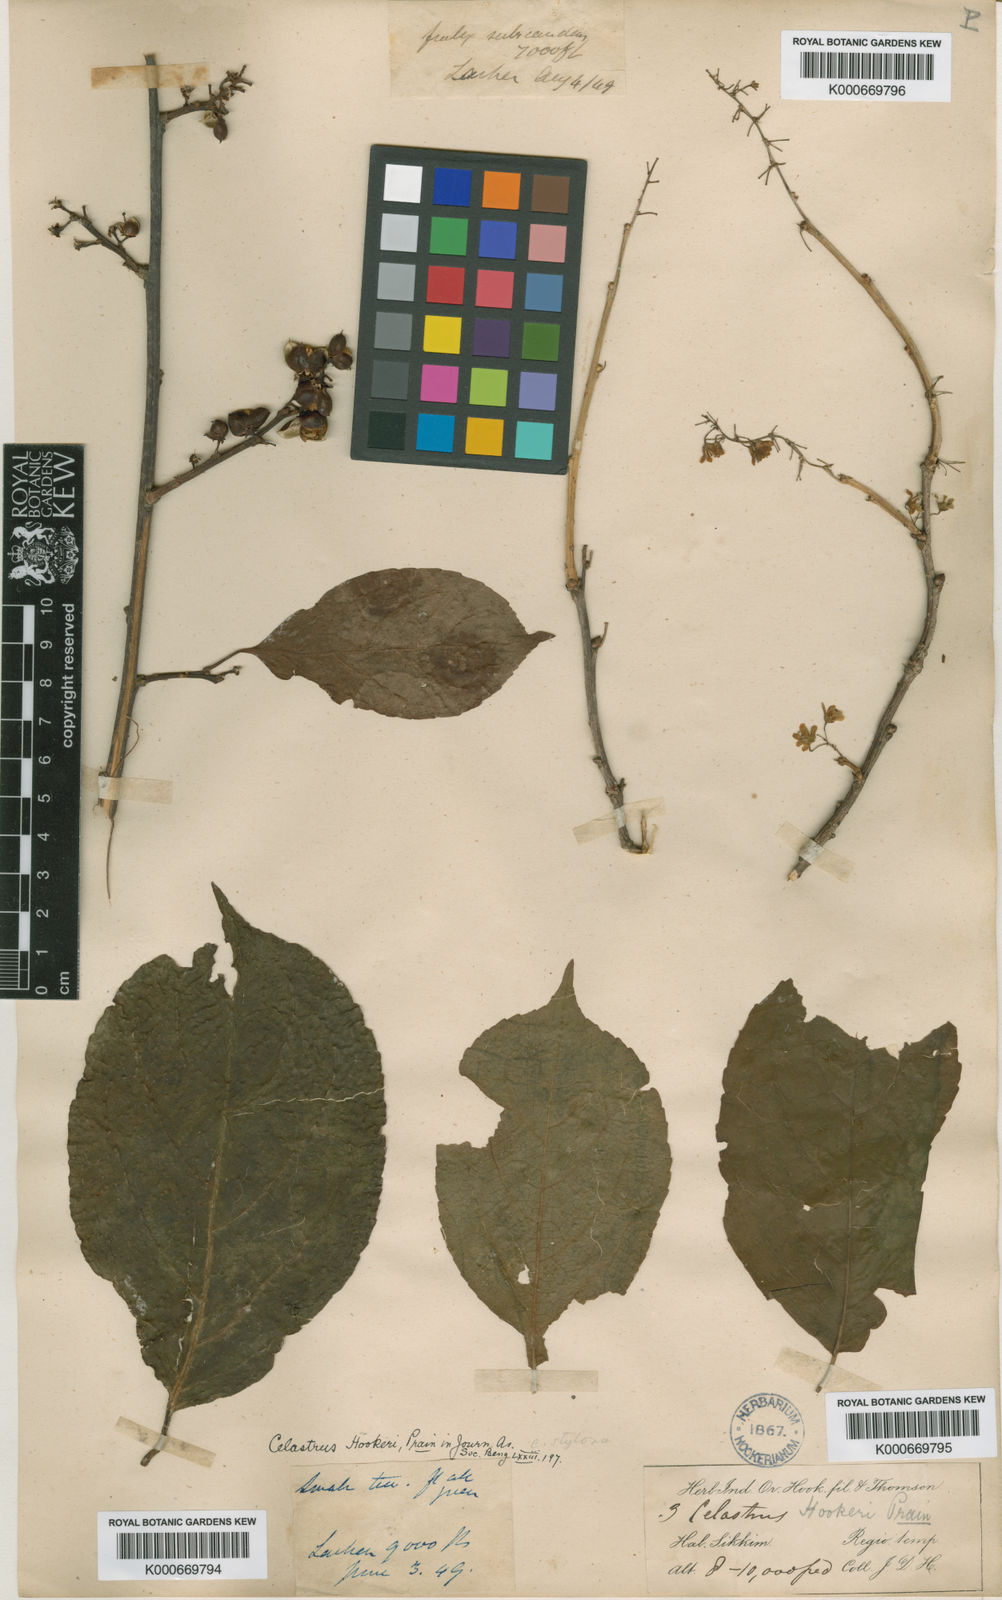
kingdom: Plantae
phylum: Tracheophyta
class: Magnoliopsida
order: Celastrales
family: Celastraceae
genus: Celastrus
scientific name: Celastrus hookeri
